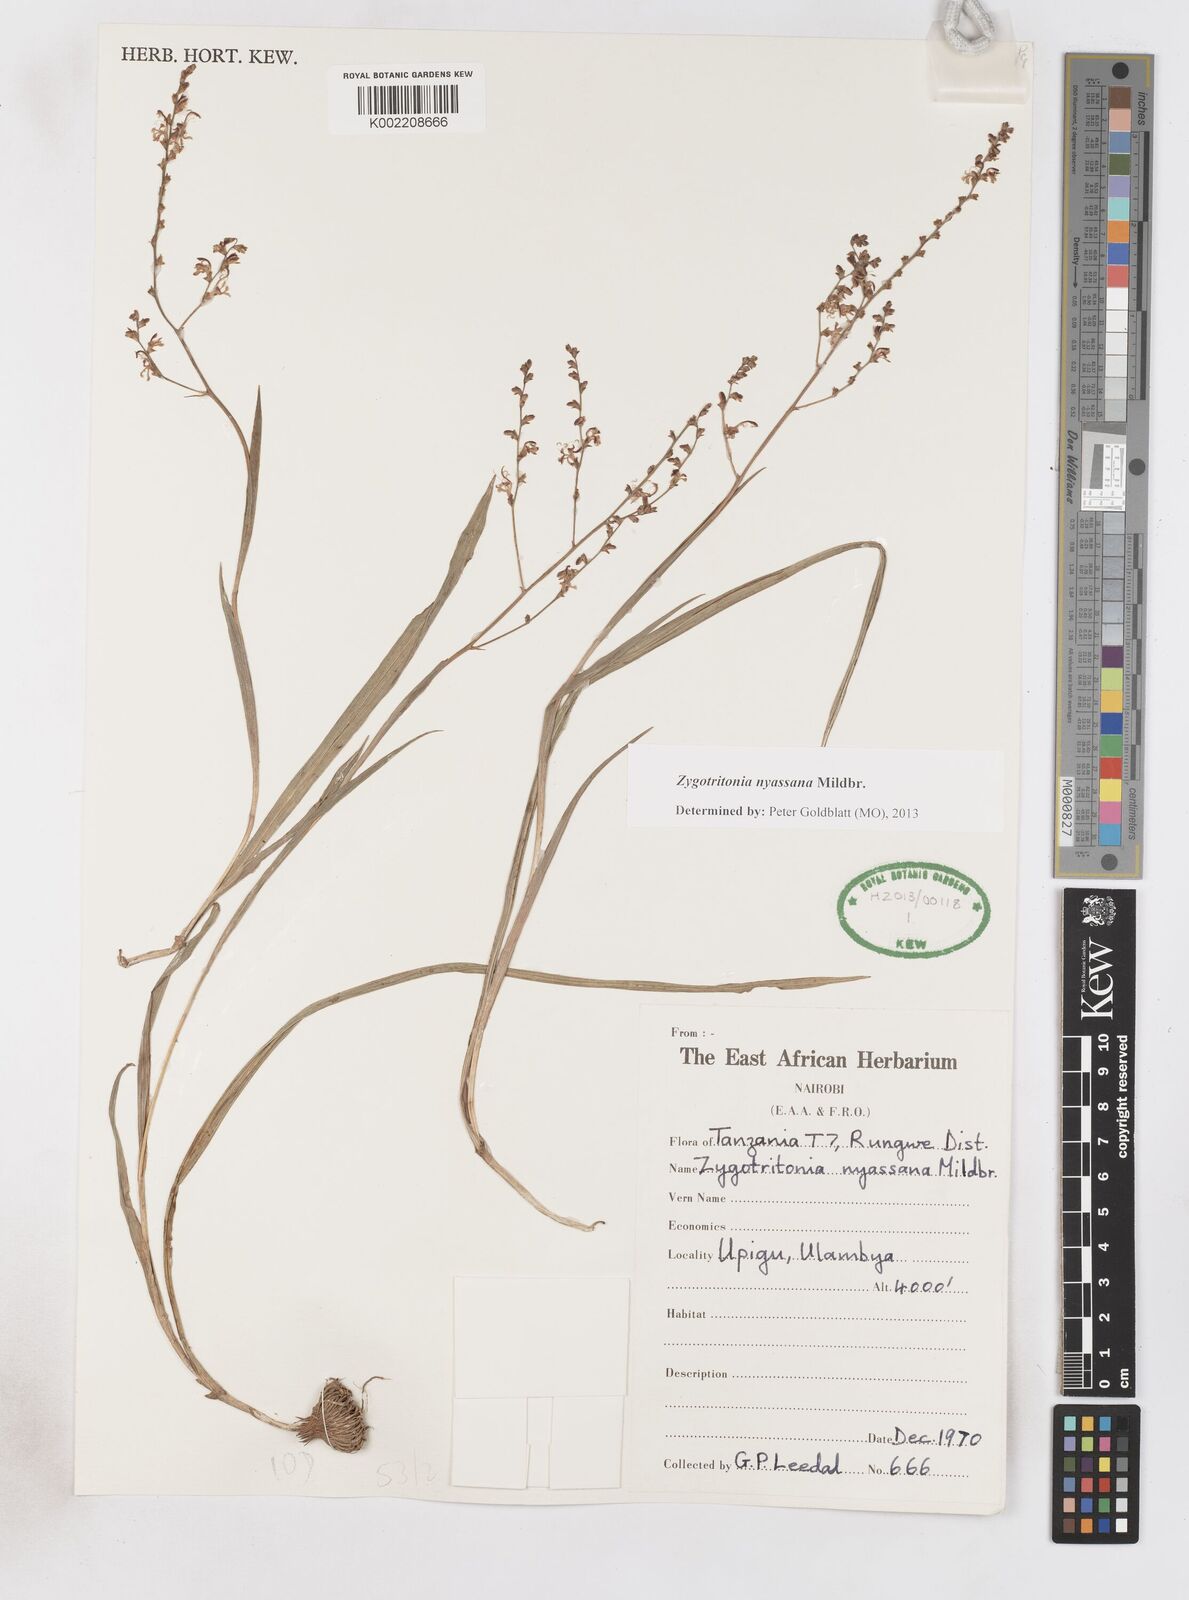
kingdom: Plantae
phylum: Tracheophyta
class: Liliopsida
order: Asparagales
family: Iridaceae
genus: Zygotritonia
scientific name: Zygotritonia nyassana
